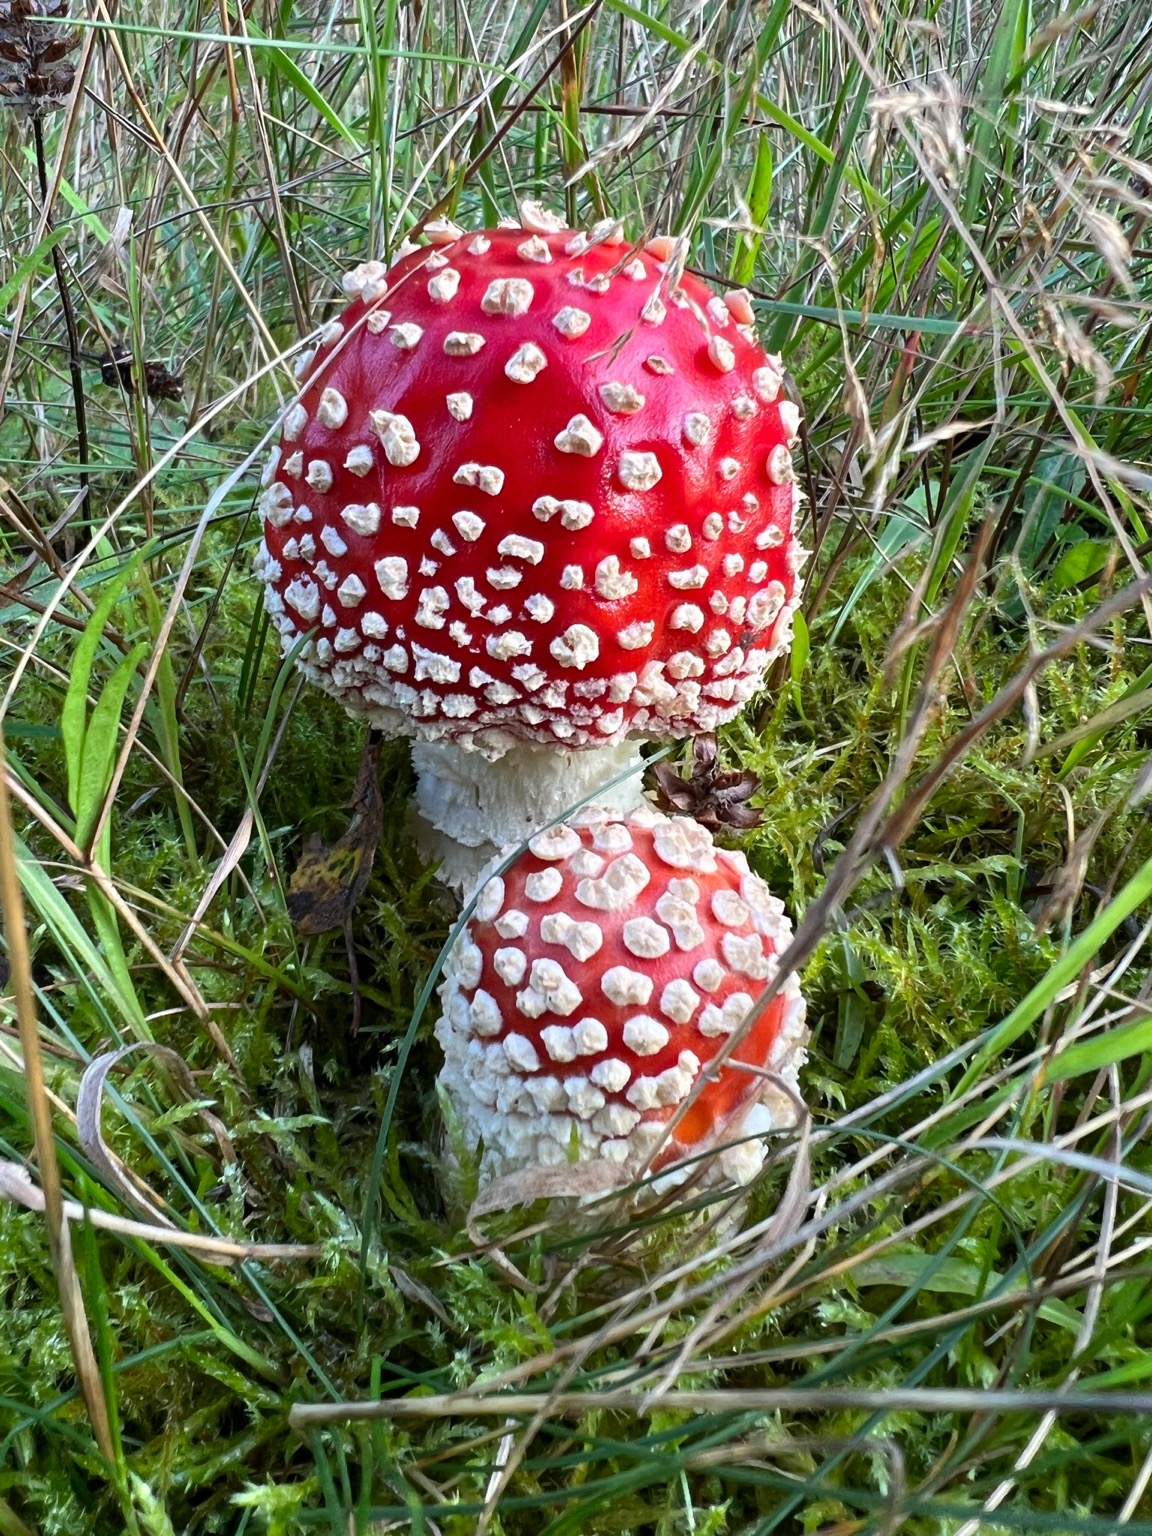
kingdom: Fungi
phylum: Basidiomycota
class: Agaricomycetes
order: Agaricales
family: Amanitaceae
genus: Amanita
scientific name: Amanita muscaria
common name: Rød fluesvamp
